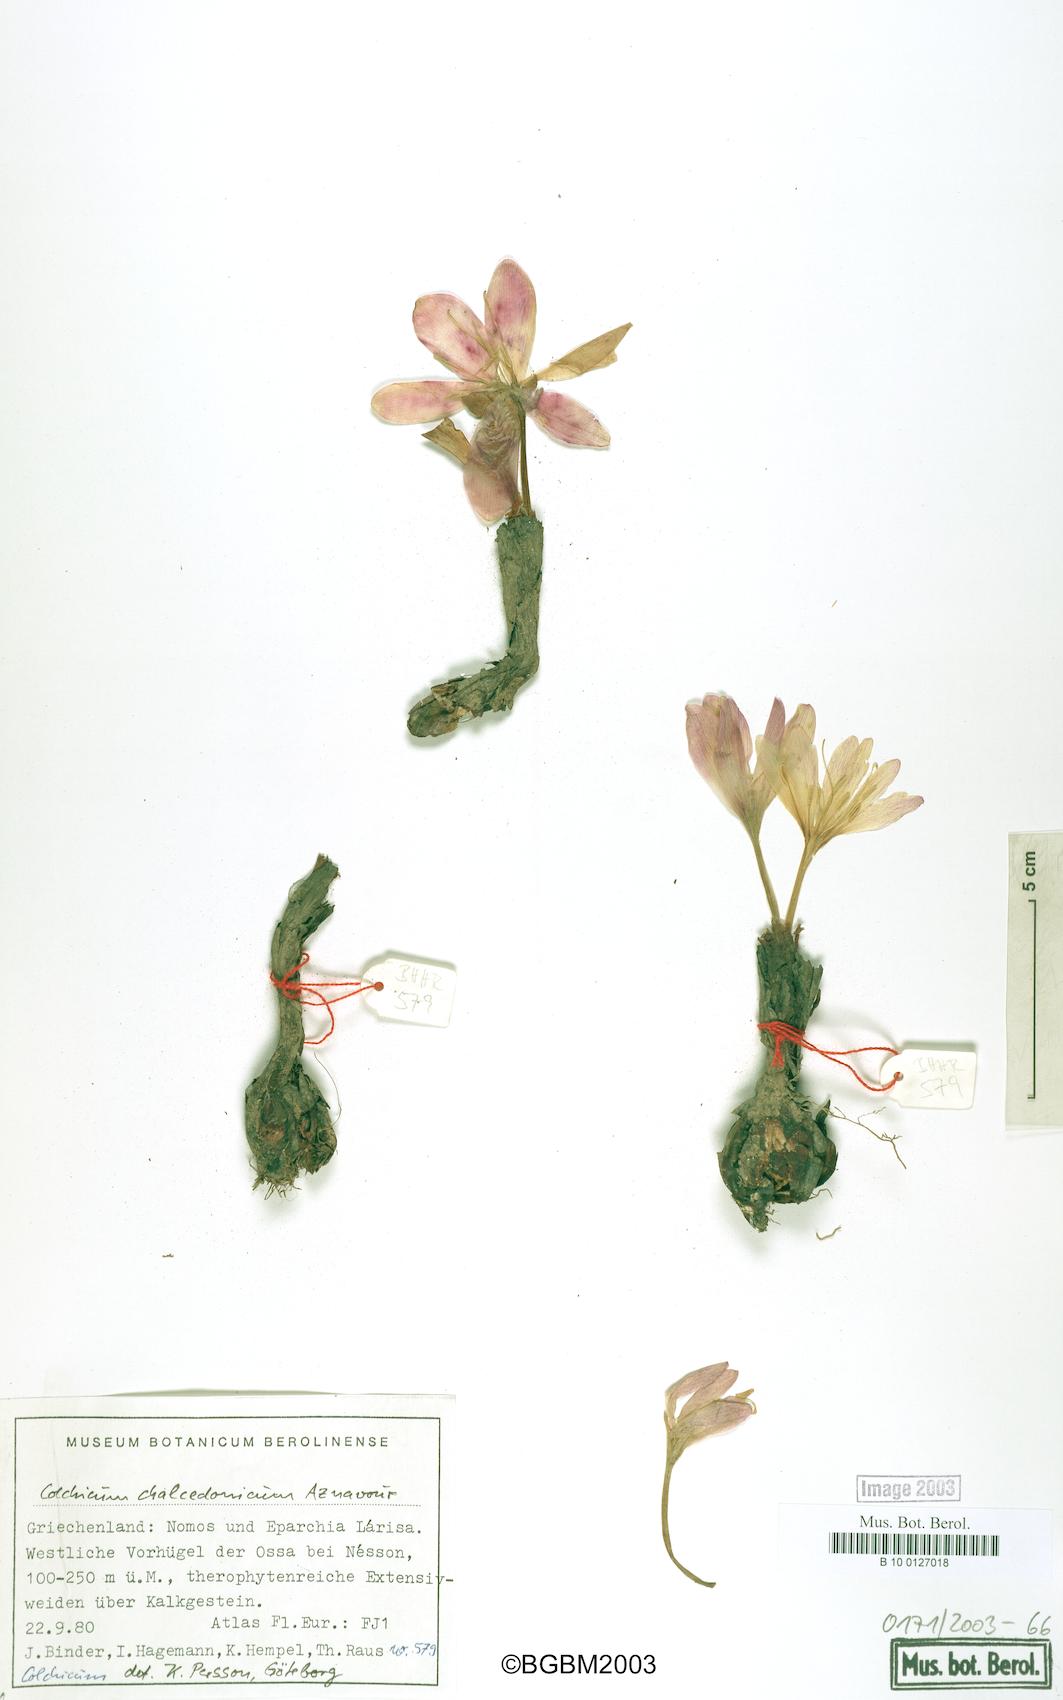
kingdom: Plantae
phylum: Tracheophyta
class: Liliopsida
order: Liliales
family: Colchicaceae
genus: Colchicum
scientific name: Colchicum chalcedonicum
